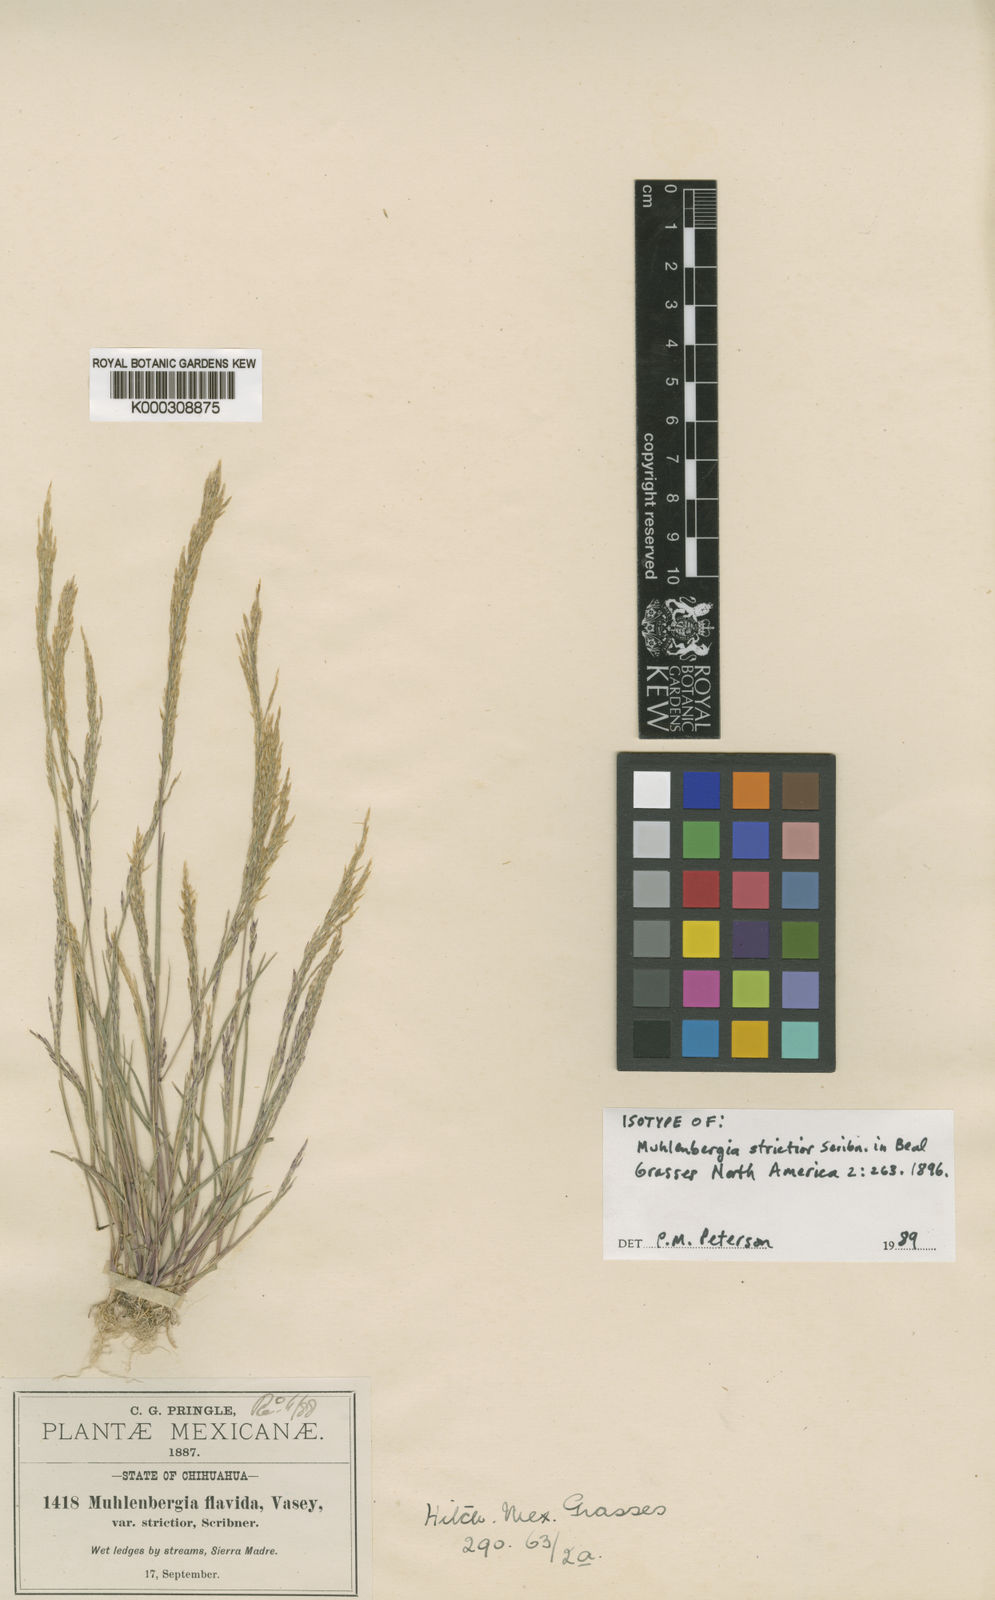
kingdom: Plantae
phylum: Tracheophyta
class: Liliopsida
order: Poales
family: Poaceae
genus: Muhlenbergia
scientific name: Muhlenbergia strictior
